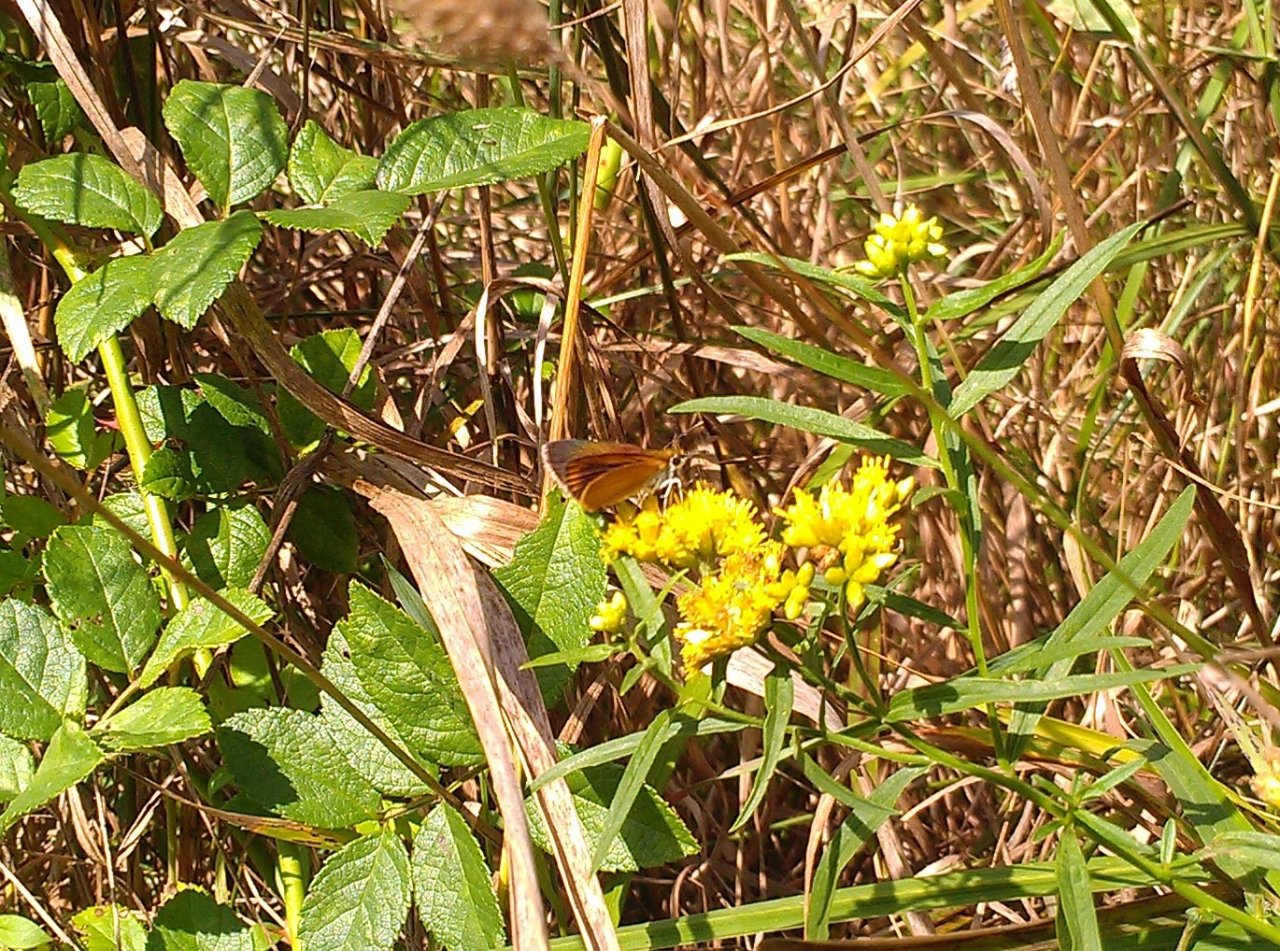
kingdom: Animalia
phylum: Arthropoda
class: Insecta
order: Lepidoptera
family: Hesperiidae
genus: Ancyloxypha
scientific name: Ancyloxypha numitor
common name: Least Skipper
